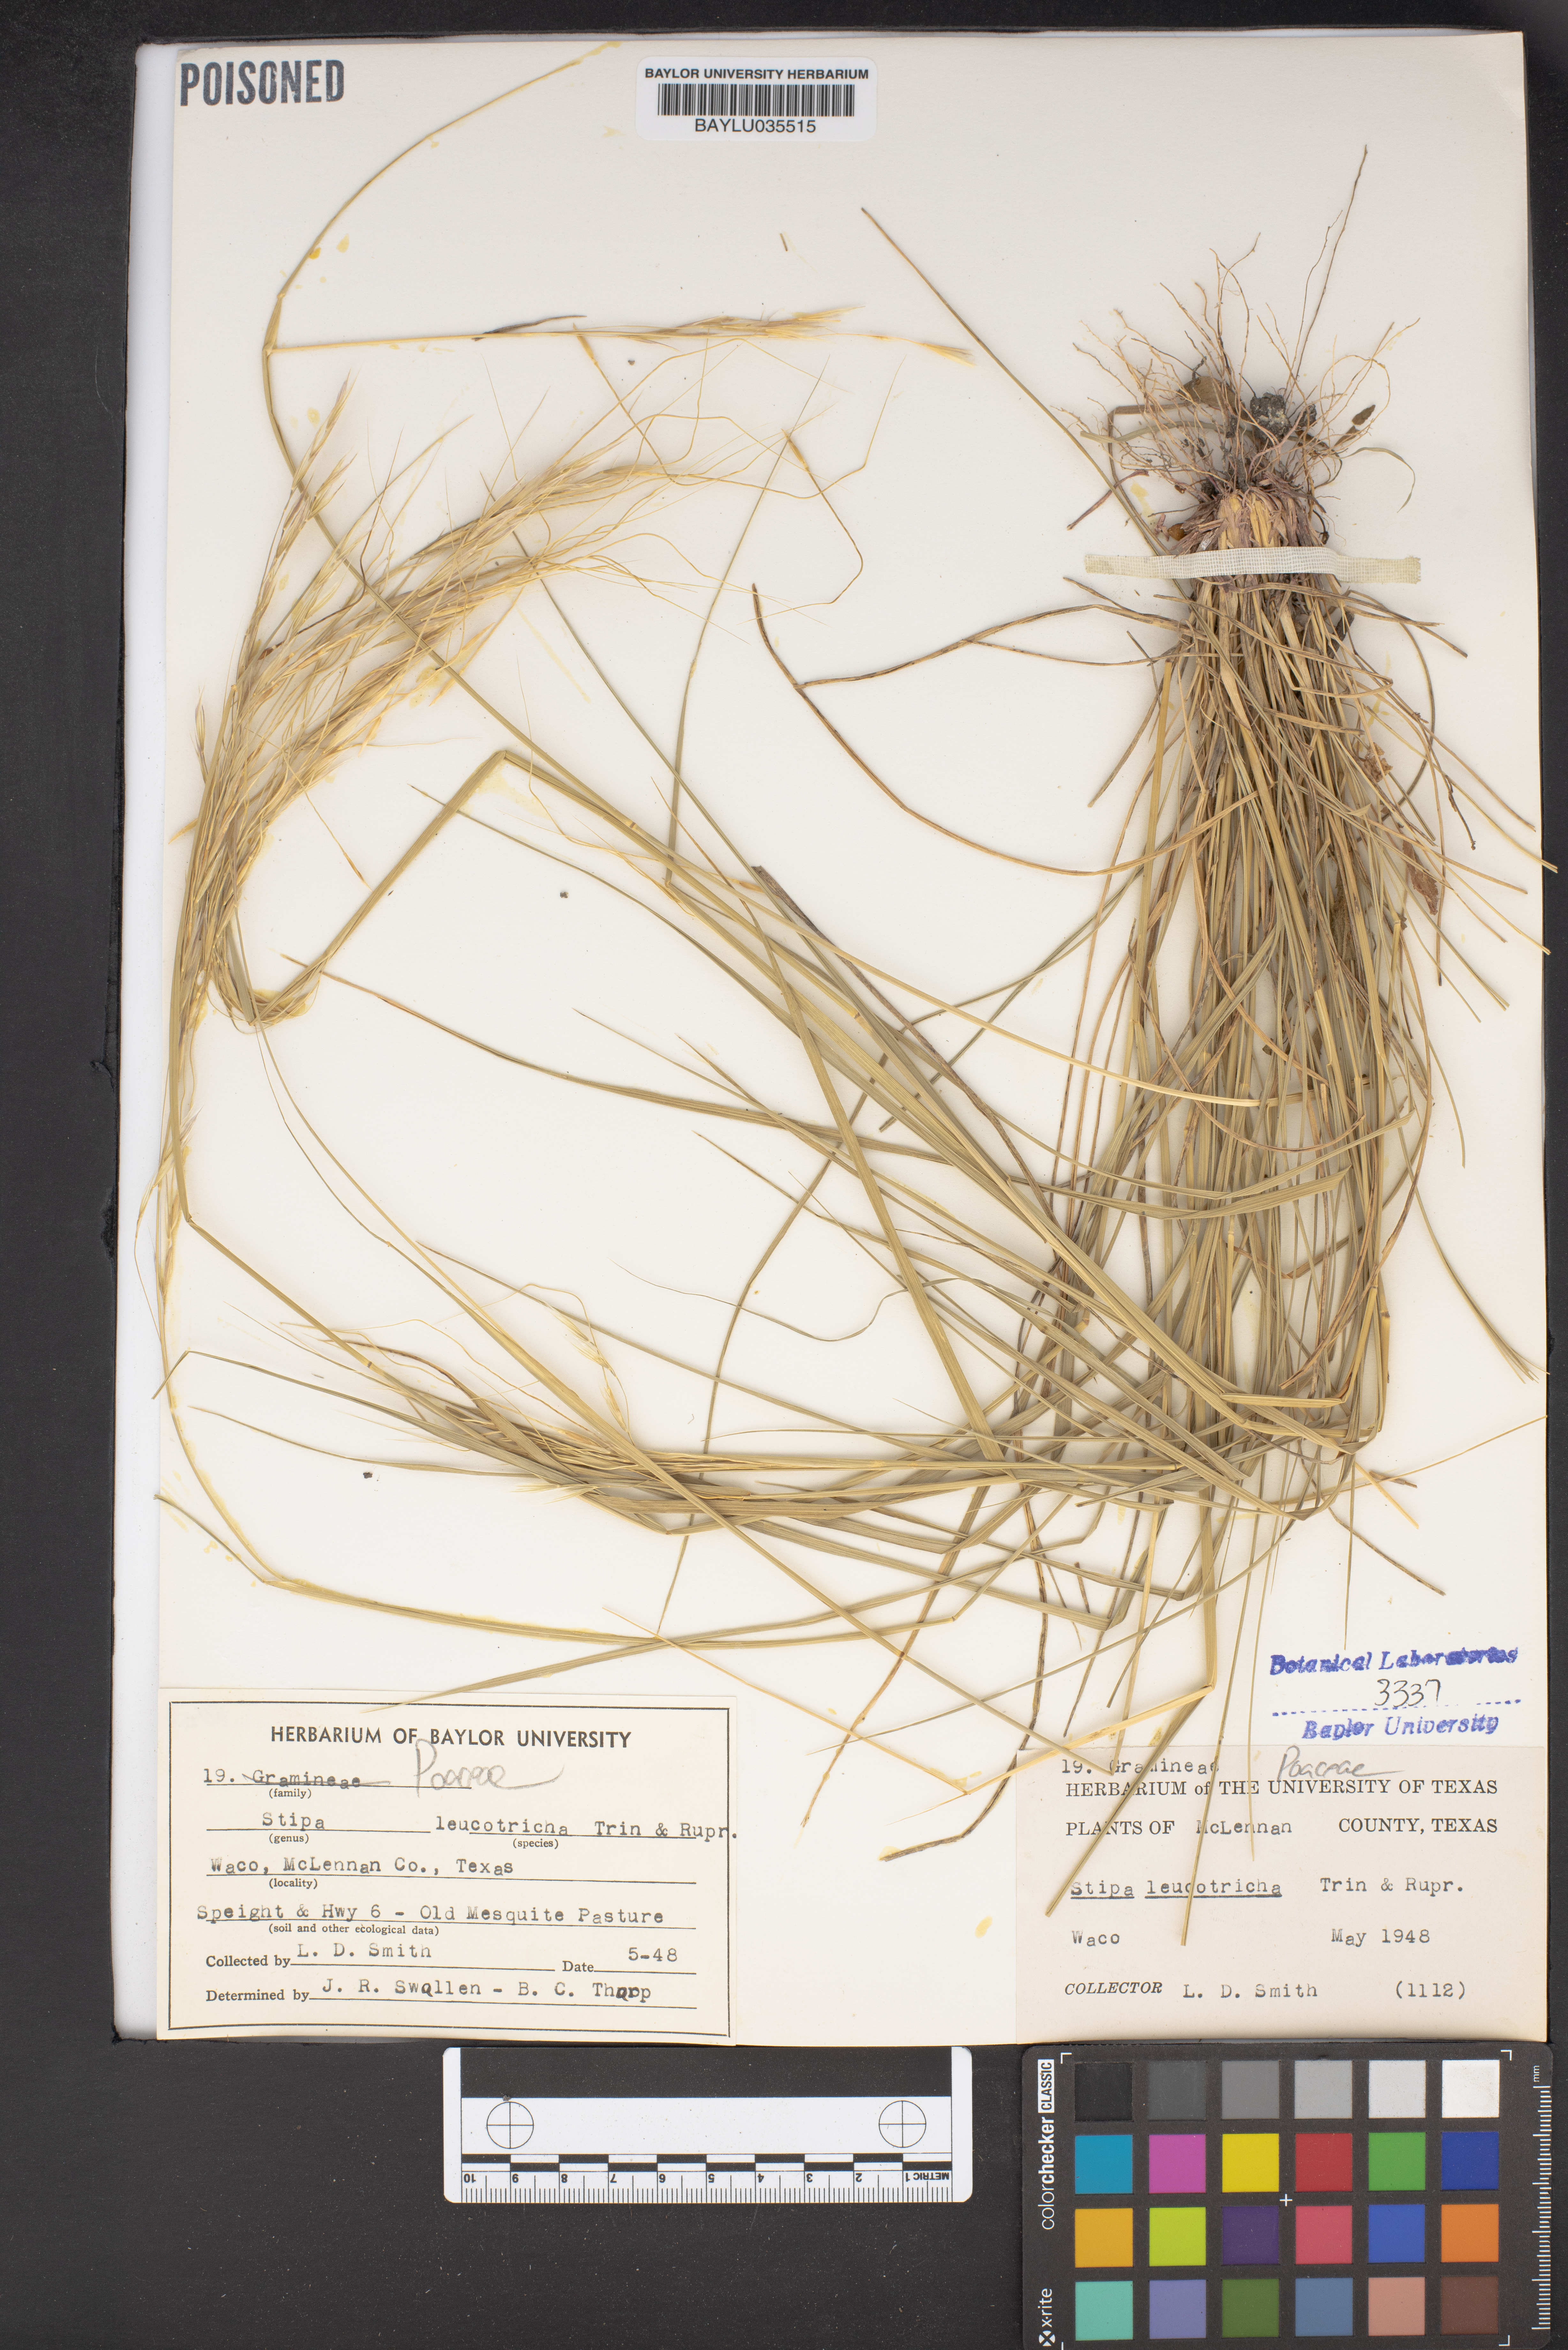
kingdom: Plantae
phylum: Tracheophyta
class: Liliopsida
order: Poales
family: Poaceae
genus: Nassella
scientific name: Nassella leucotricha
